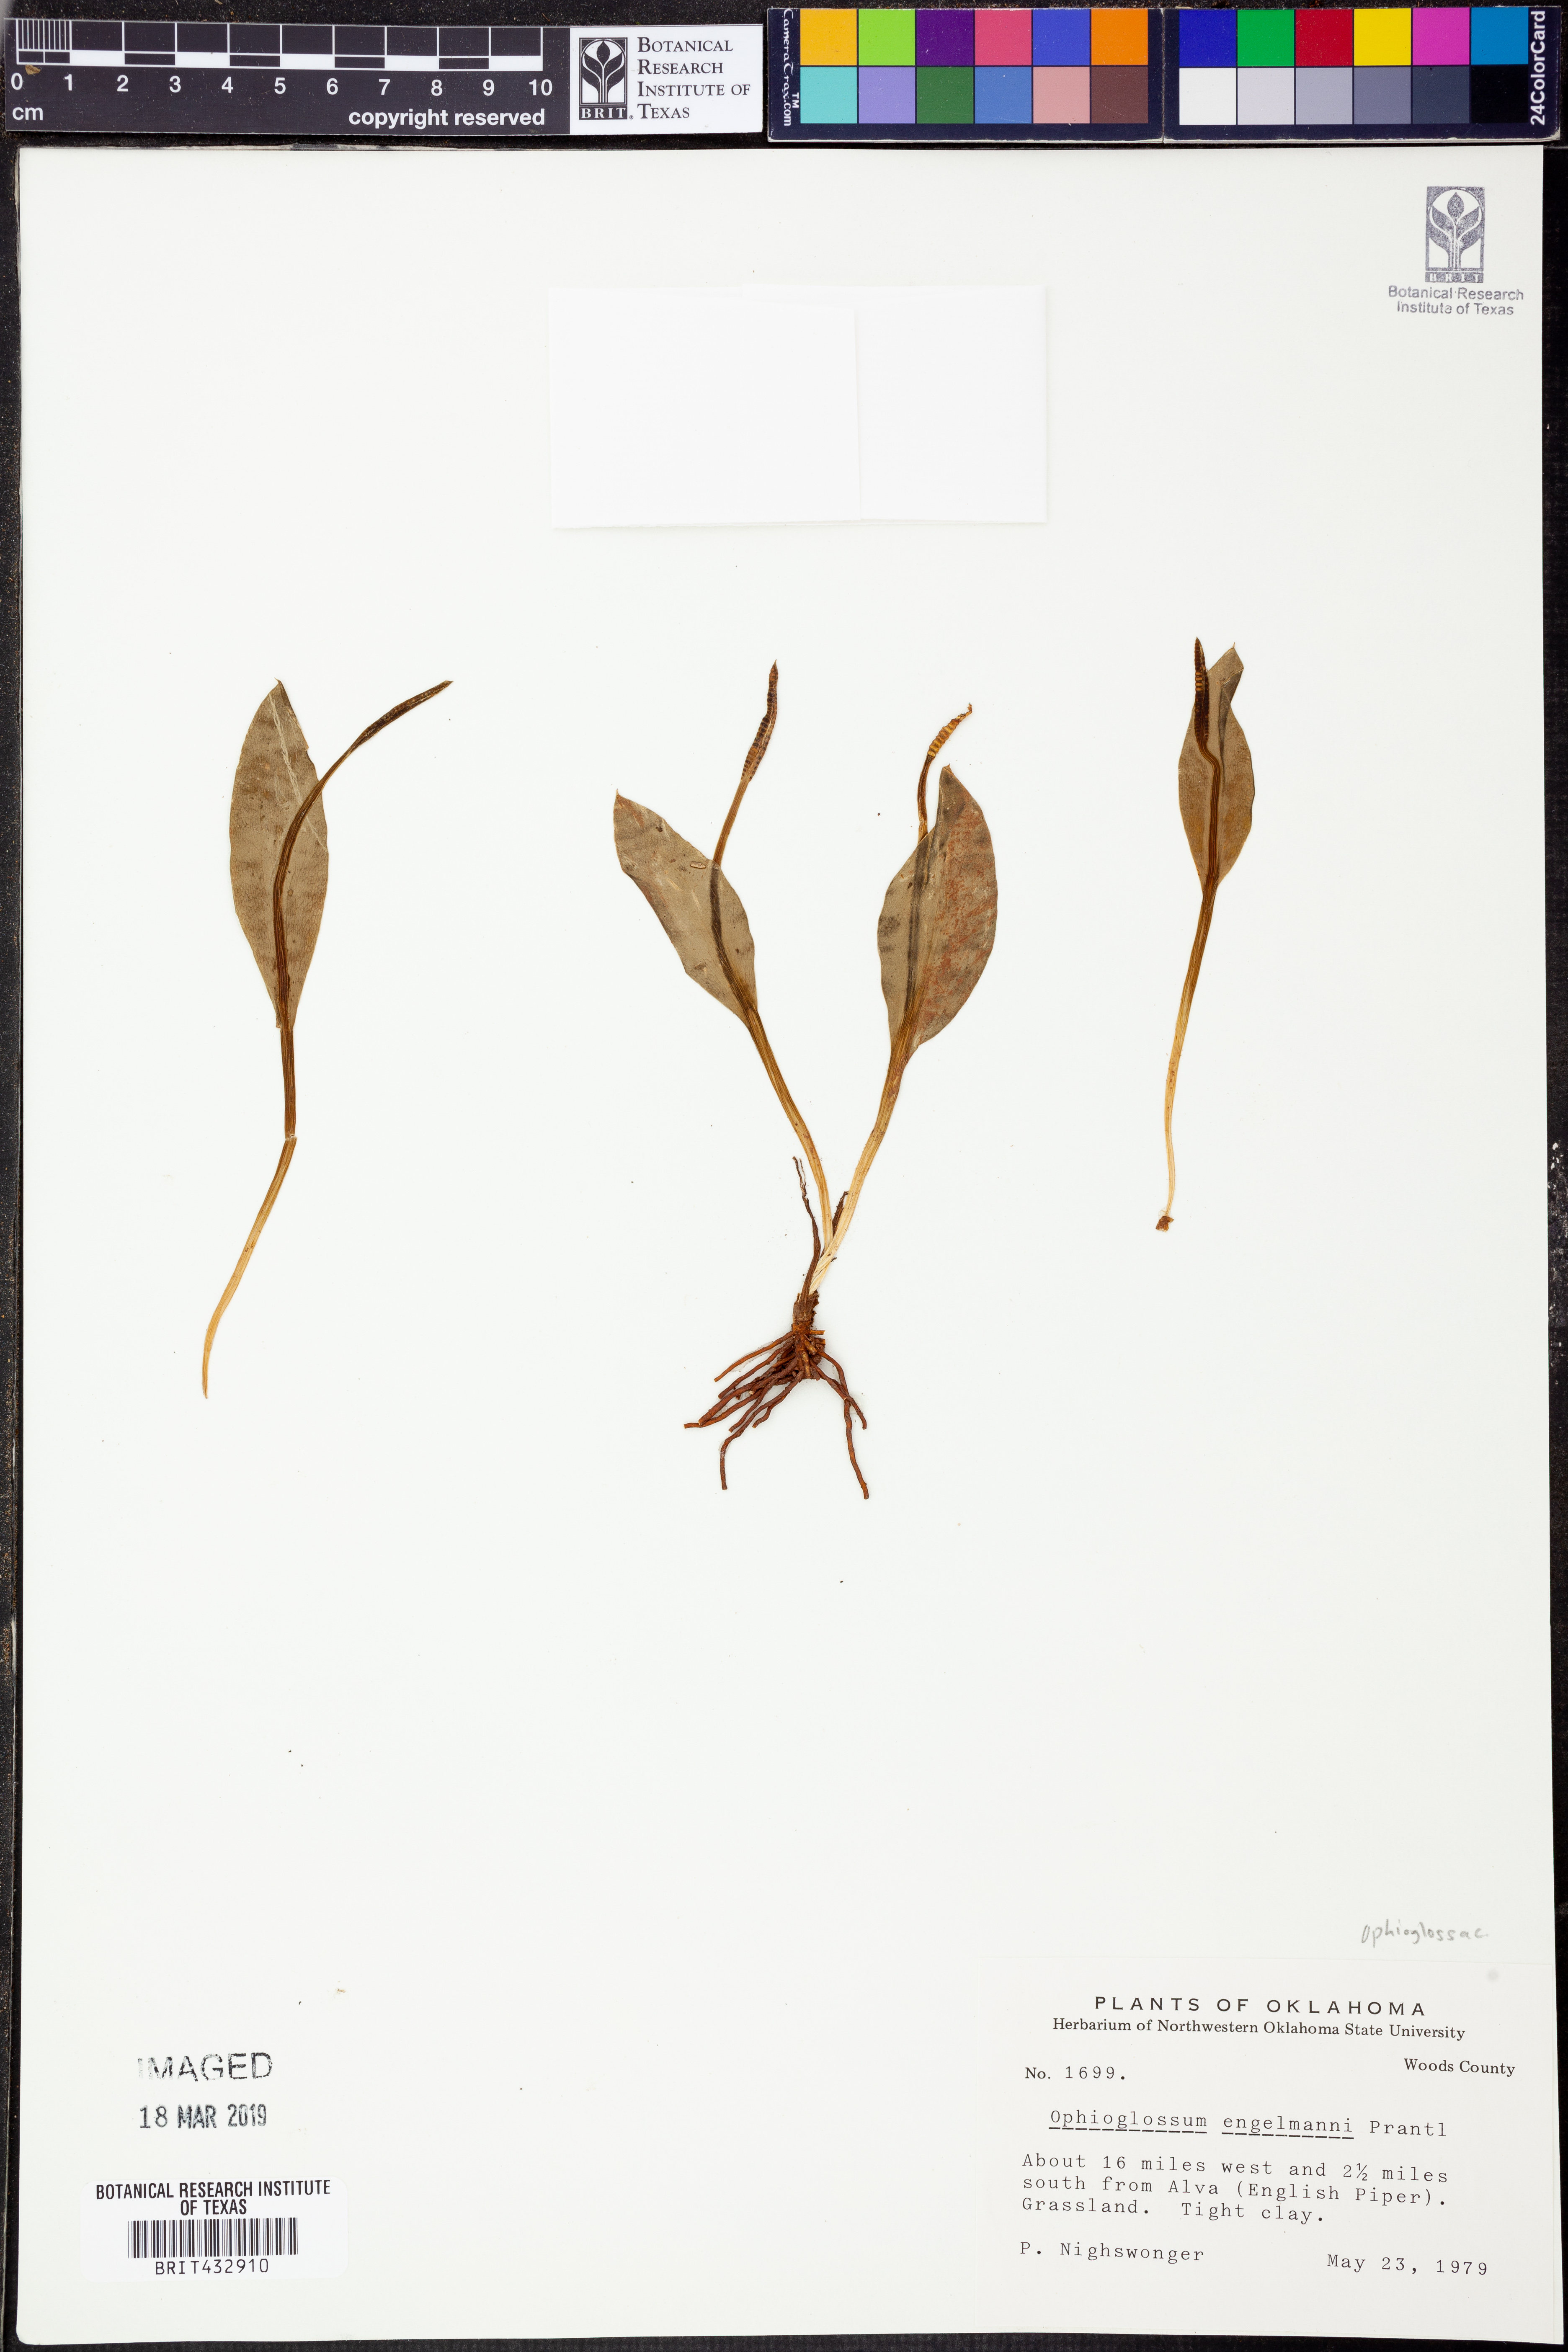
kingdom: Plantae
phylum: Tracheophyta
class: Polypodiopsida
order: Ophioglossales
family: Ophioglossaceae
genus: Ophioglossum
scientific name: Ophioglossum engelmannii
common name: Limestone adder's-tongue
